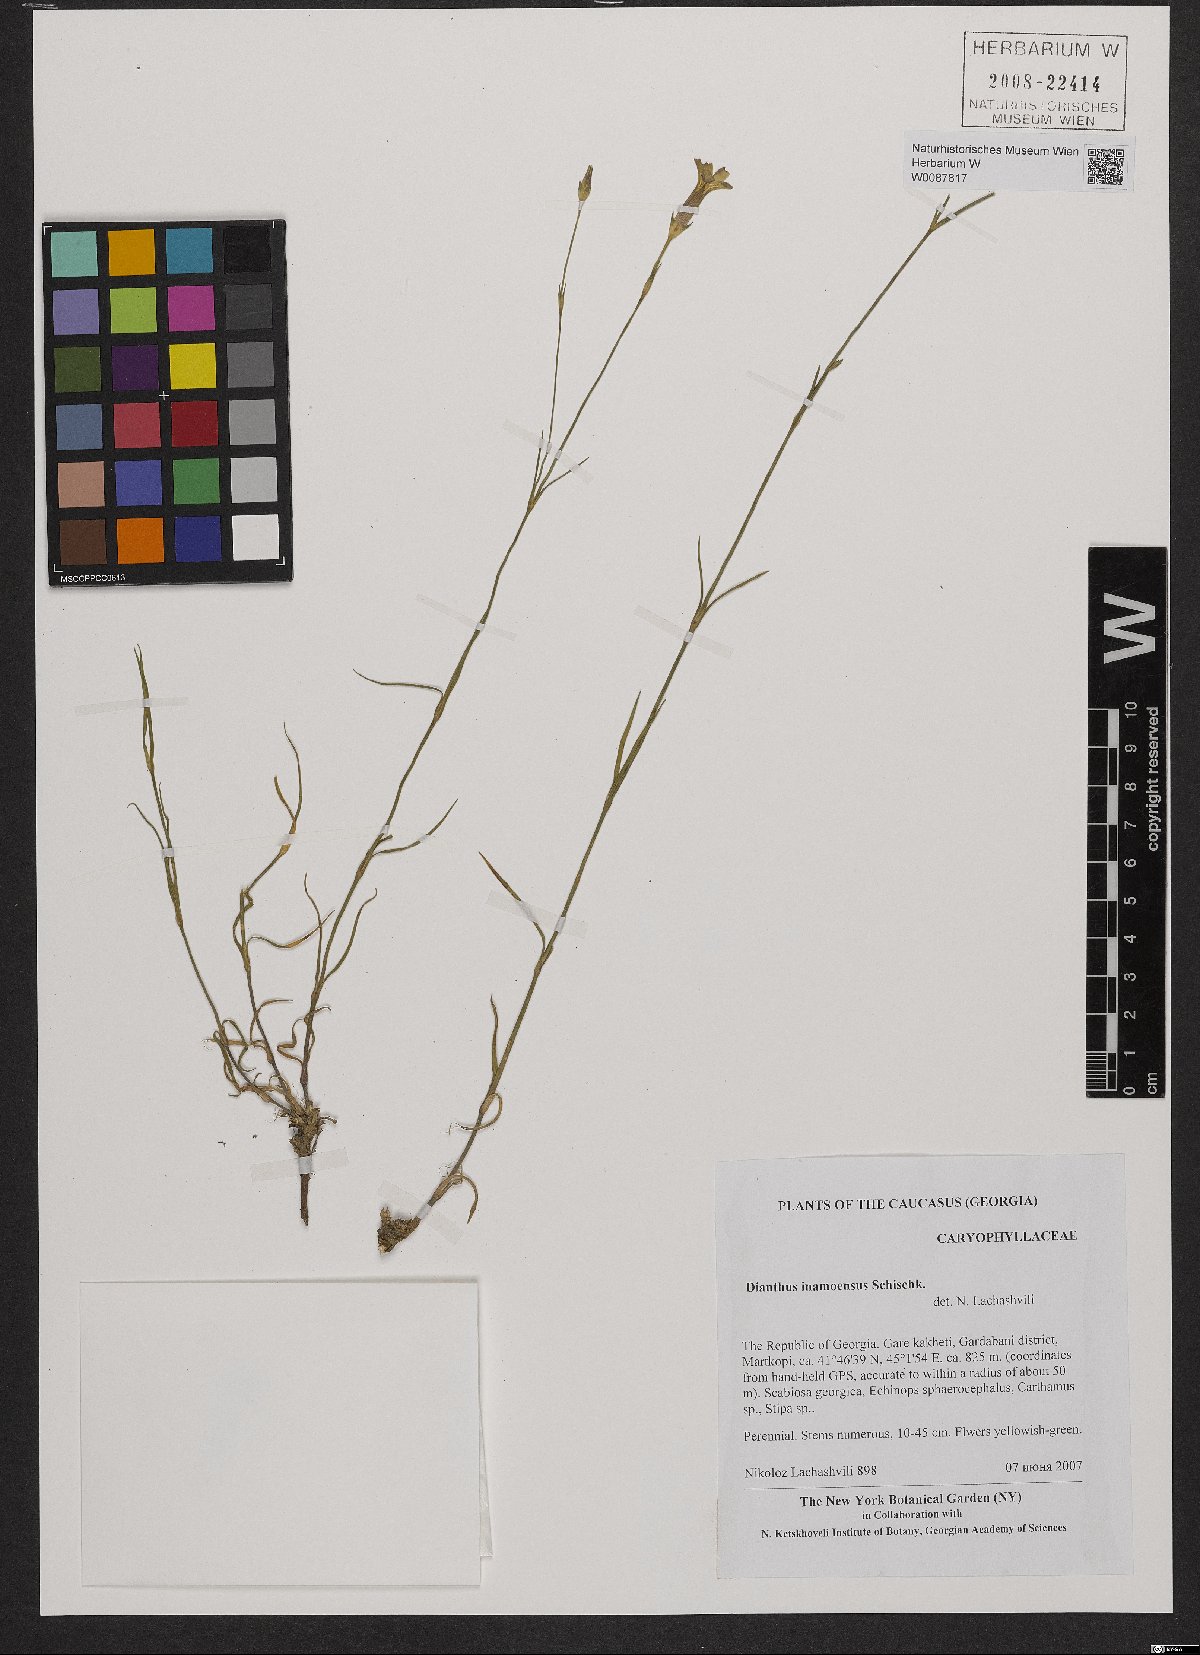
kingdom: Plantae
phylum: Tracheophyta
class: Magnoliopsida
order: Caryophyllales
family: Caryophyllaceae
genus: Dianthus
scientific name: Dianthus inamoenus
